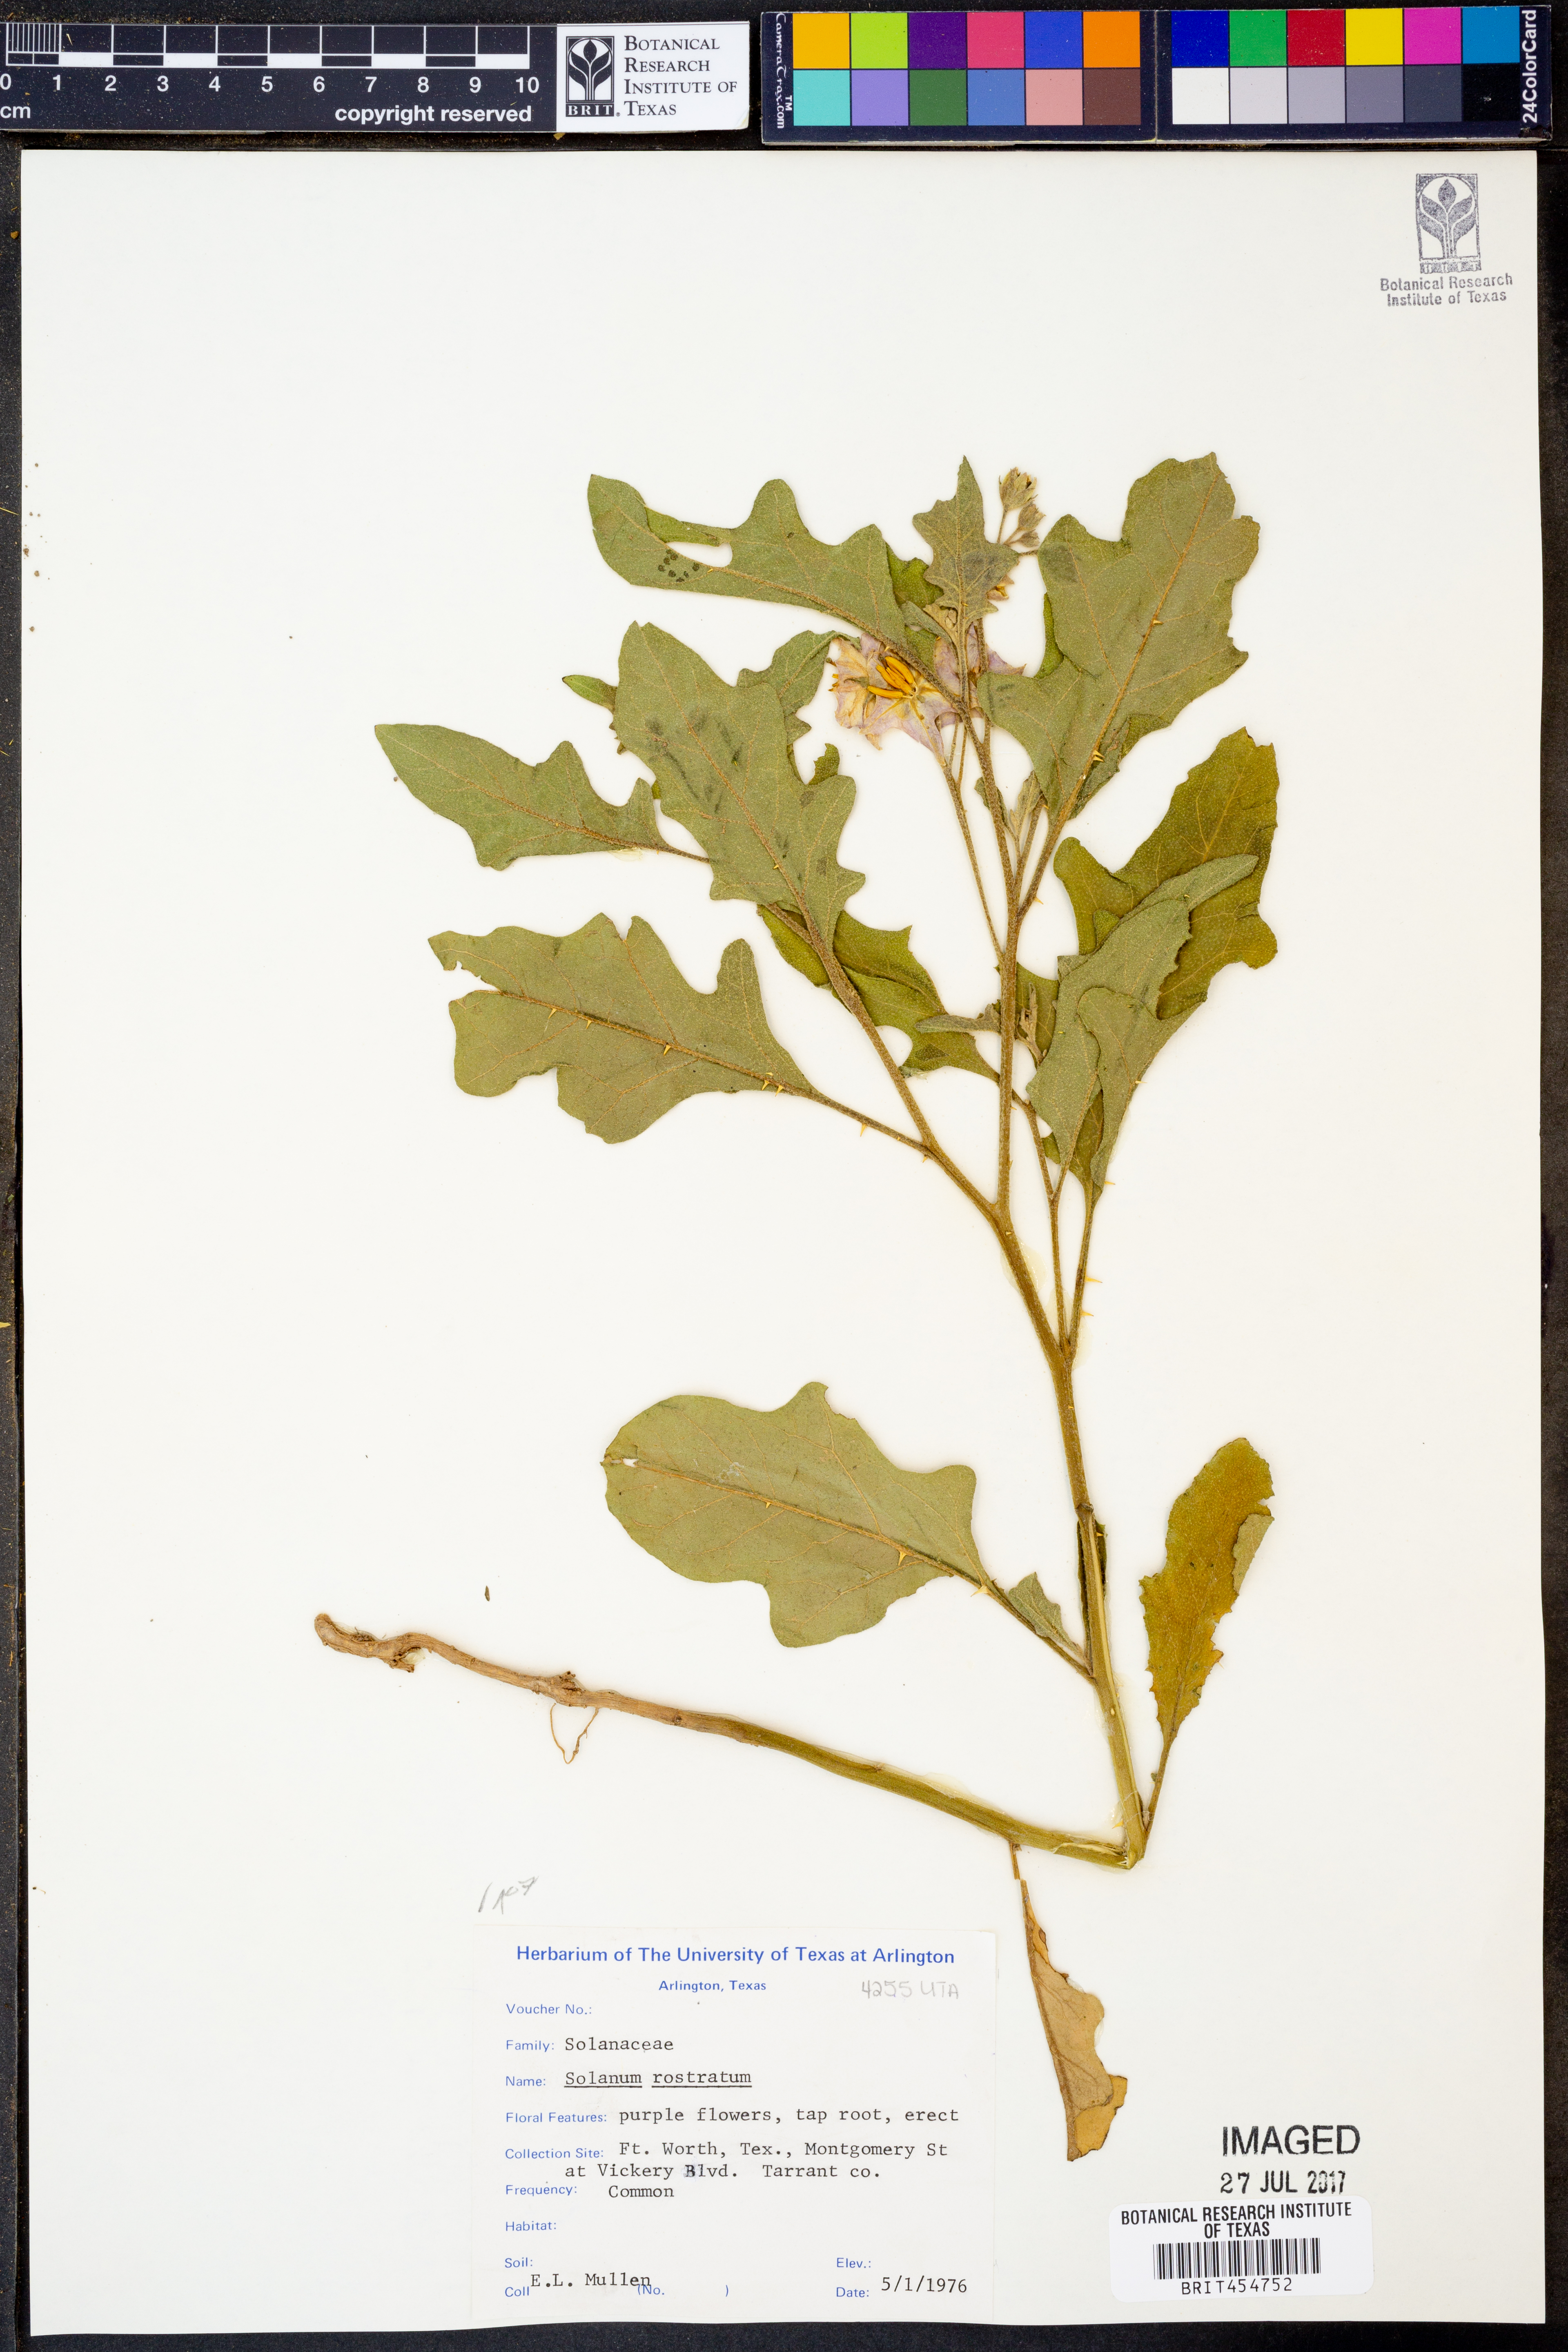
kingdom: Plantae
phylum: Tracheophyta
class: Magnoliopsida
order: Solanales
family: Solanaceae
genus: Solanum
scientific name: Solanum angustifolium
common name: Buffalobur nightshade
